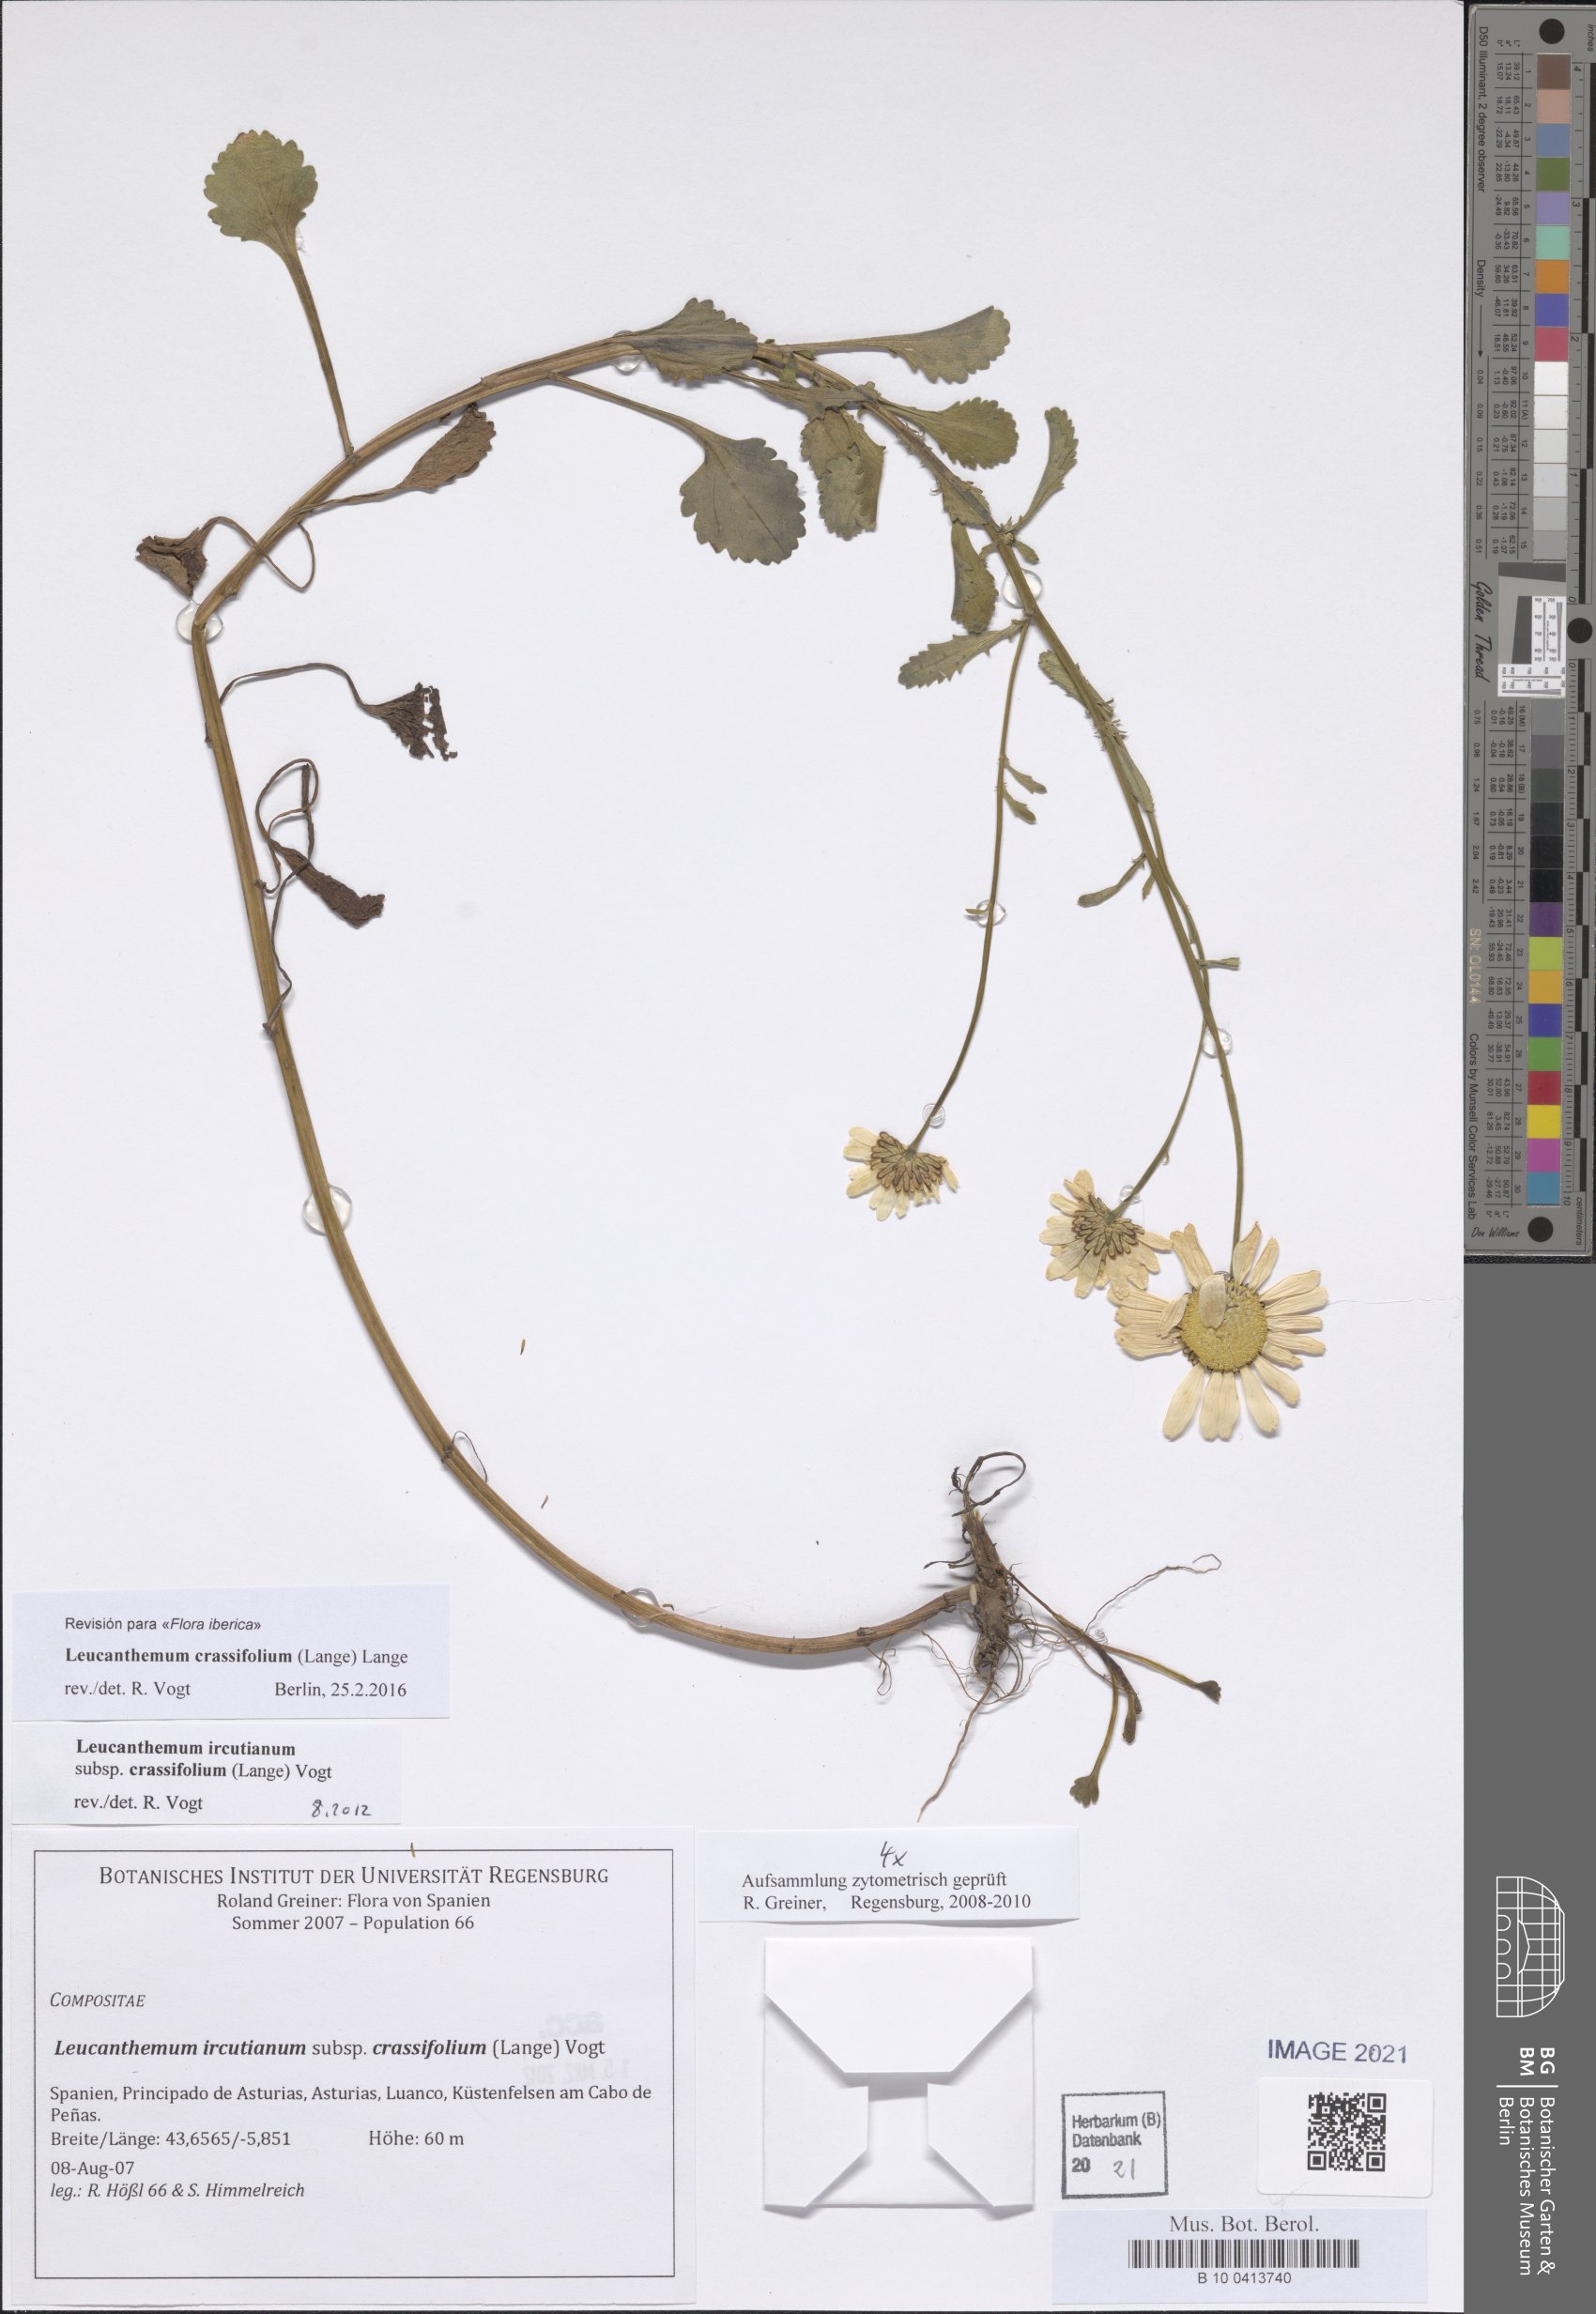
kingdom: Plantae
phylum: Tracheophyta
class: Magnoliopsida
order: Asterales
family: Asteraceae
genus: Leucanthemum
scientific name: Leucanthemum crassifolium
